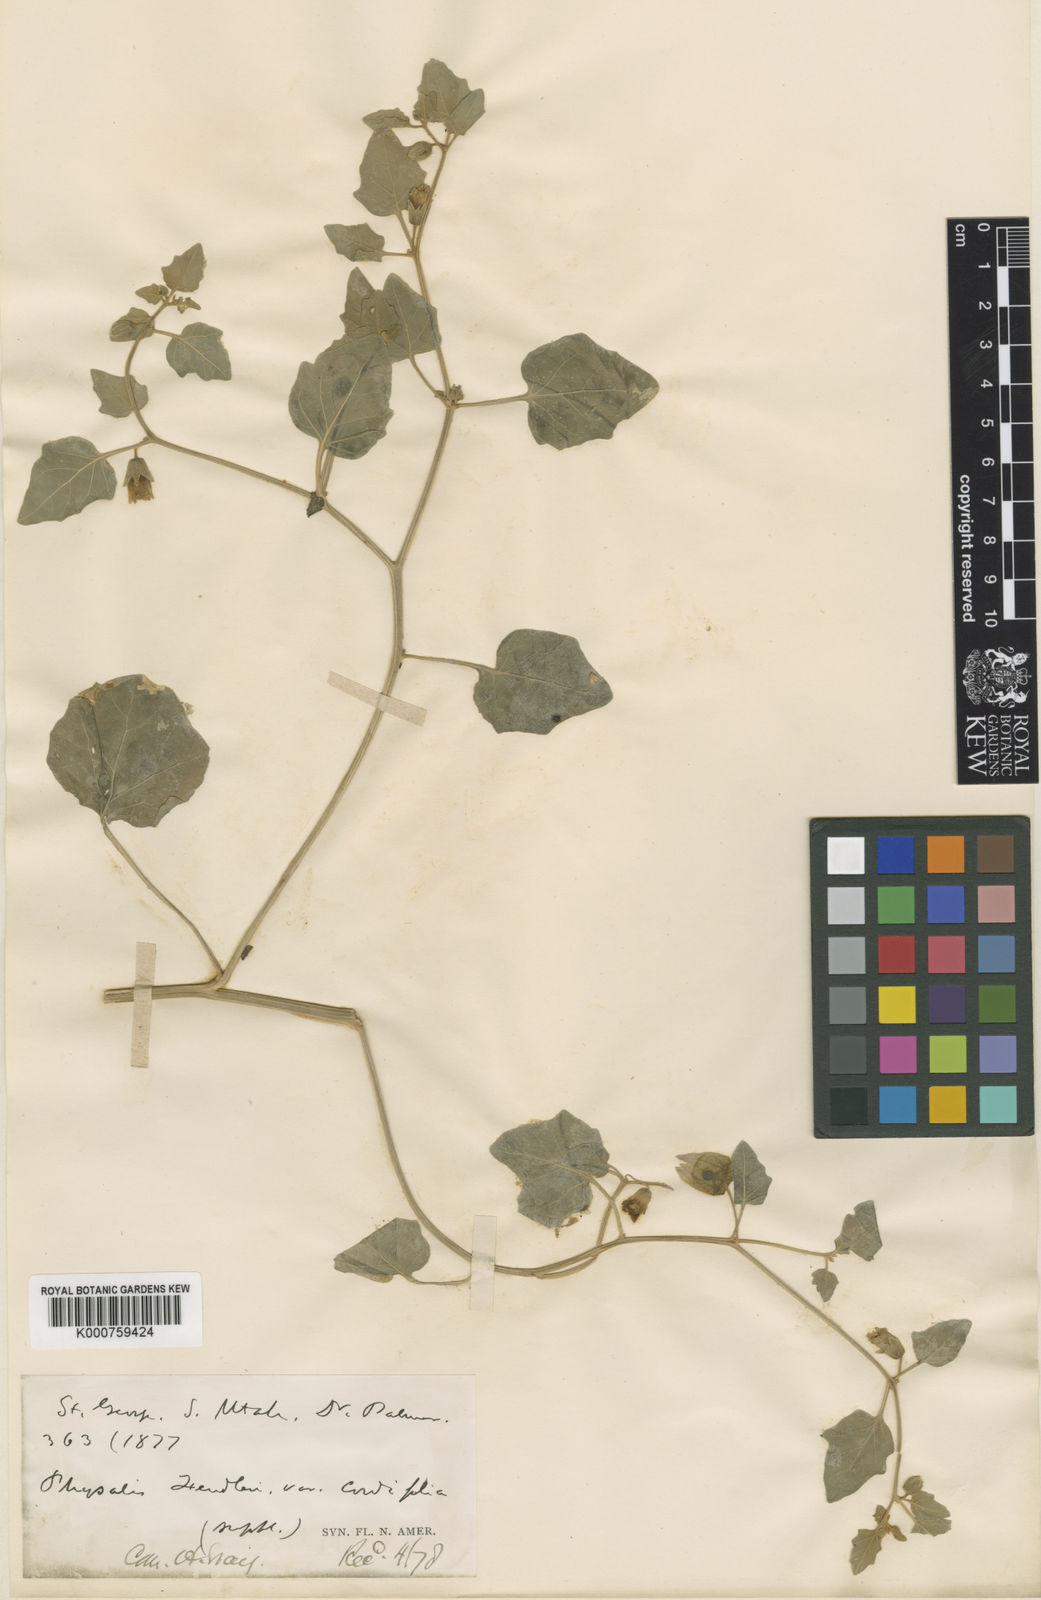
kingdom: Plantae
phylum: Tracheophyta
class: Magnoliopsida
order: Solanales
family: Solanaceae
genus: Physalis
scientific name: Physalis fendleri
